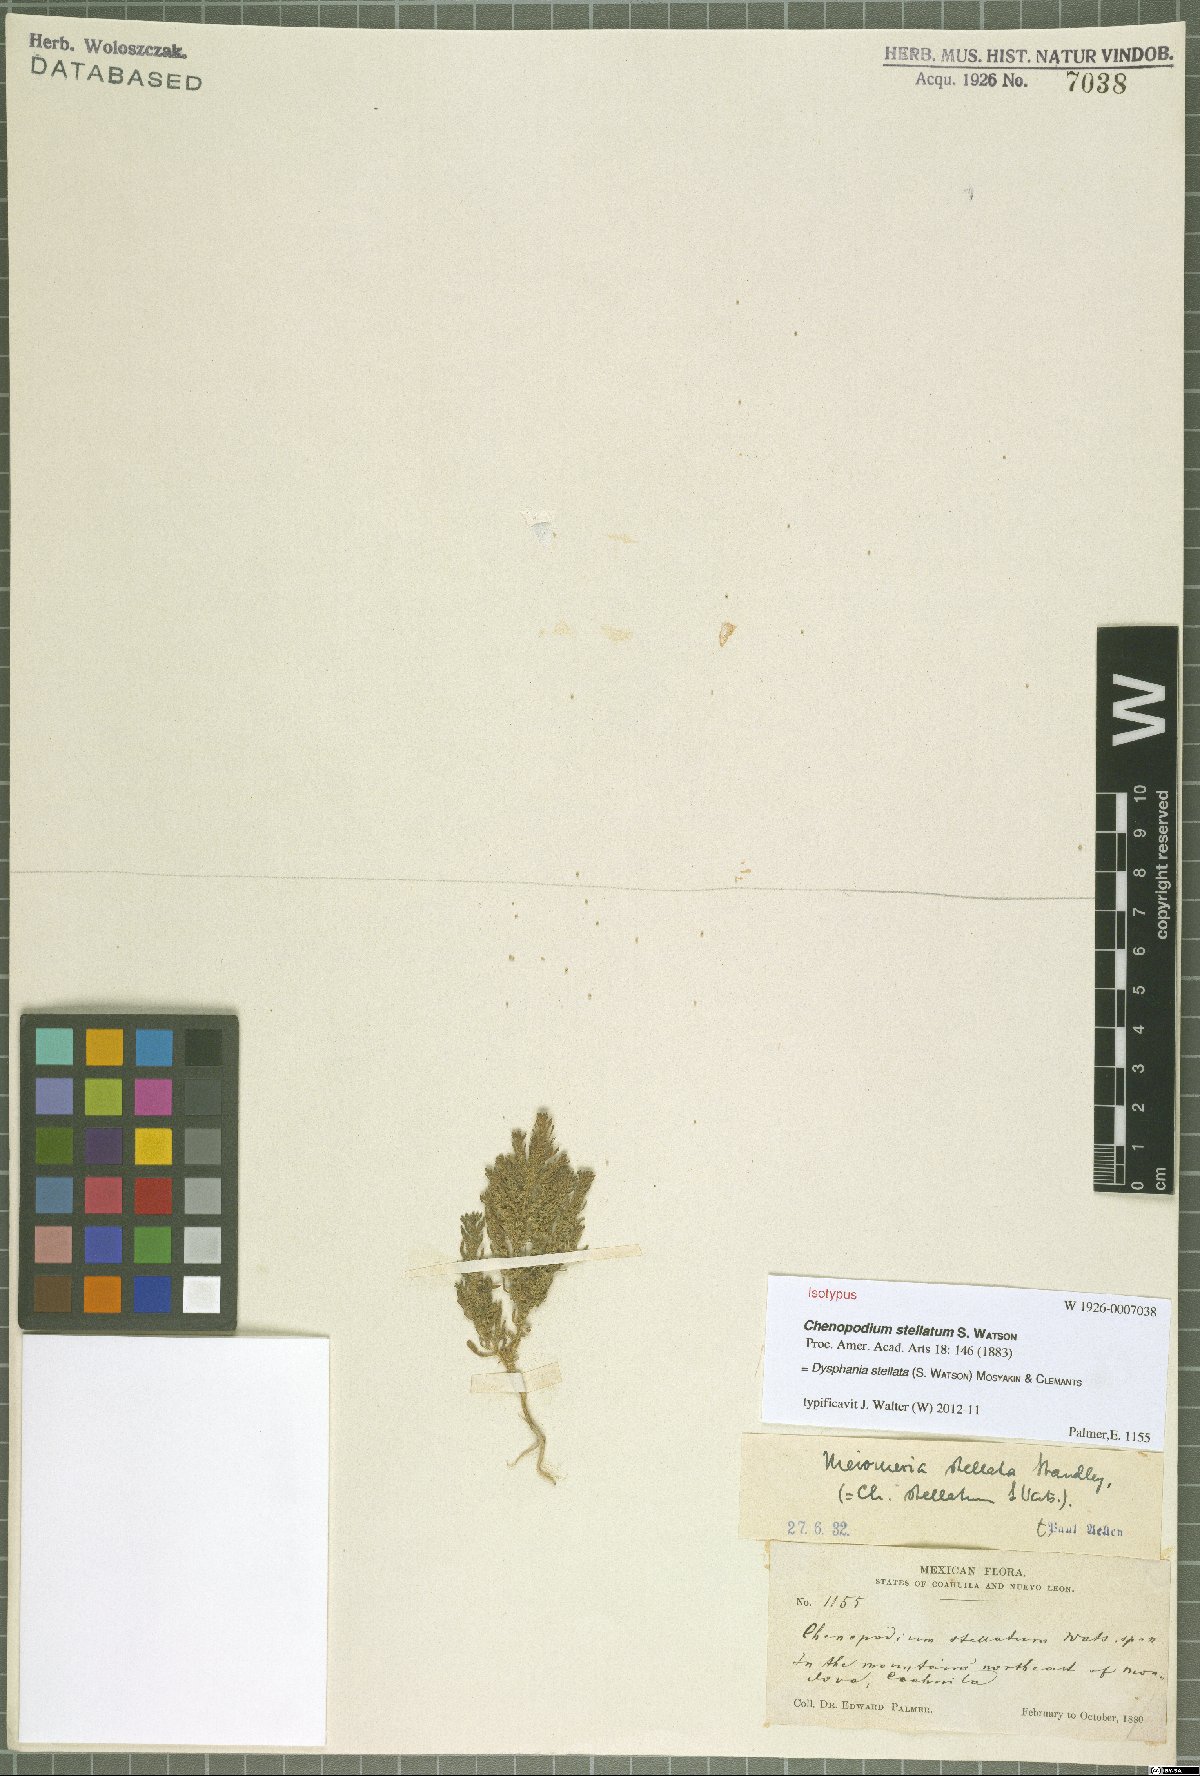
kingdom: Plantae
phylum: Tracheophyta
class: Magnoliopsida
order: Caryophyllales
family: Amaranthaceae
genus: Dysphania
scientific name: Dysphania stellata
